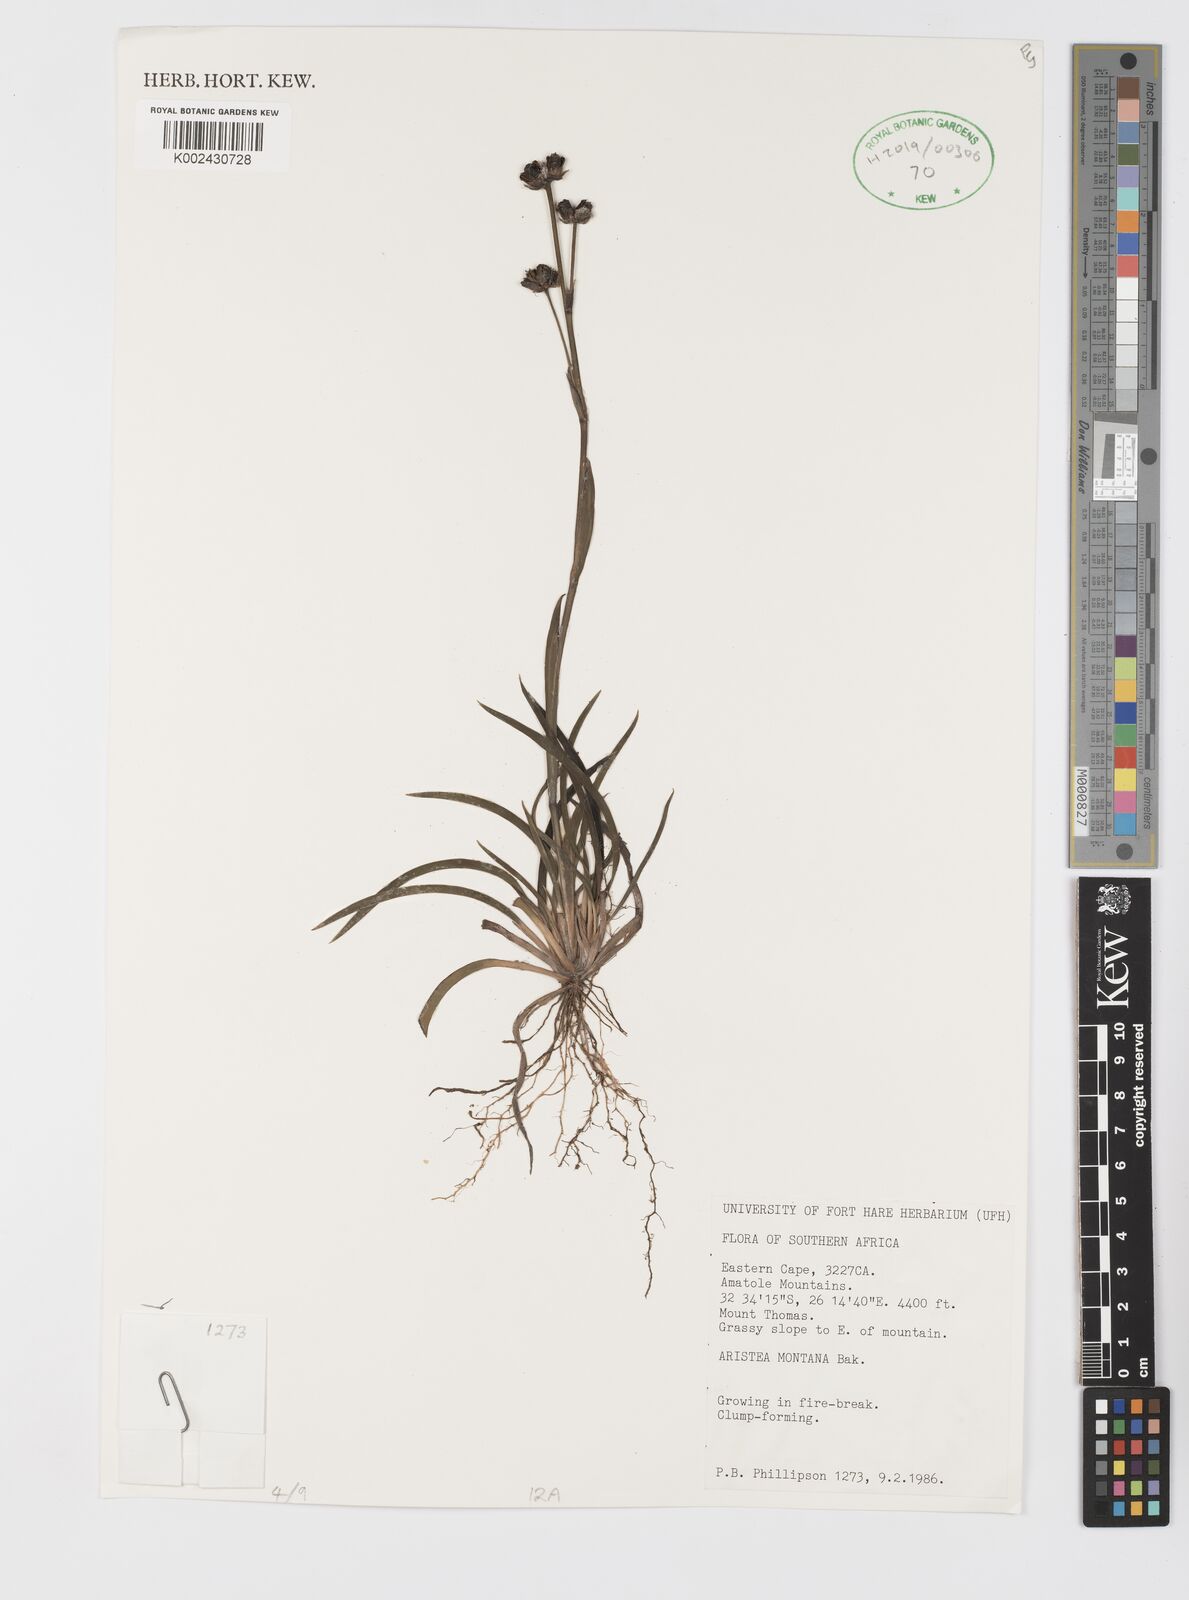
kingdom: Plantae
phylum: Tracheophyta
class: Liliopsida
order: Asparagales
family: Iridaceae
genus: Aristea
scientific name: Aristea montana
